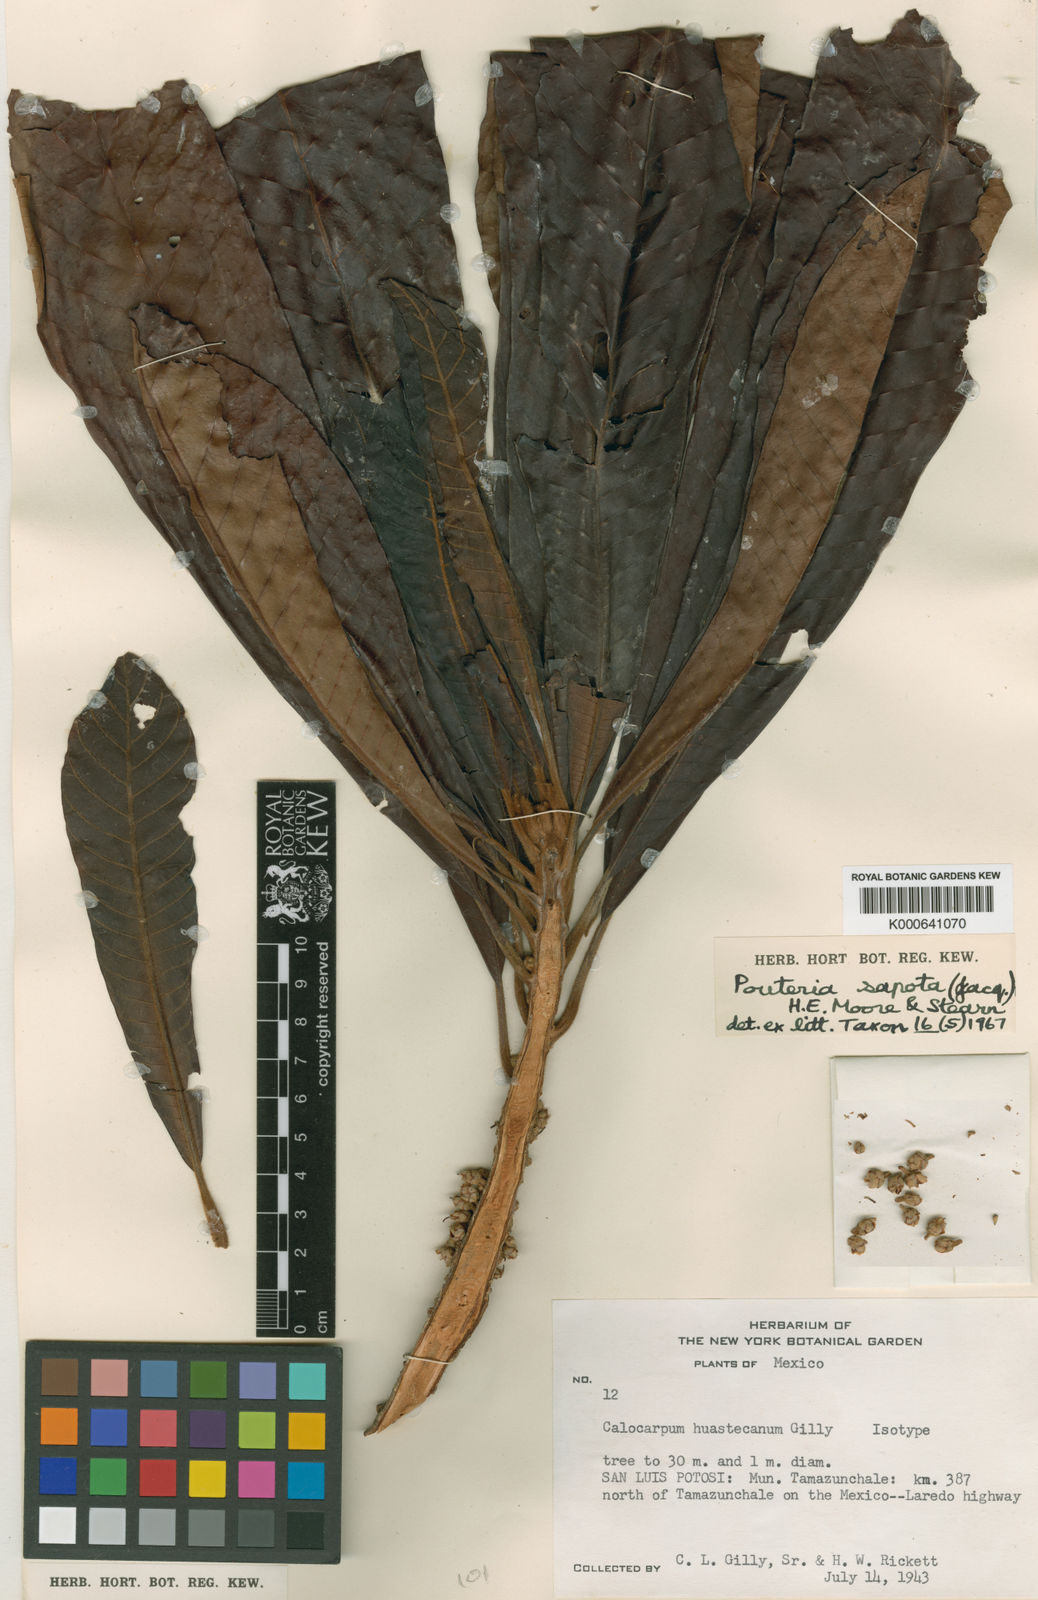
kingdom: Plantae
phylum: Tracheophyta
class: Magnoliopsida
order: Ericales
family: Sapotaceae
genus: Pouteria
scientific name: Pouteria sapota
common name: Mamey
